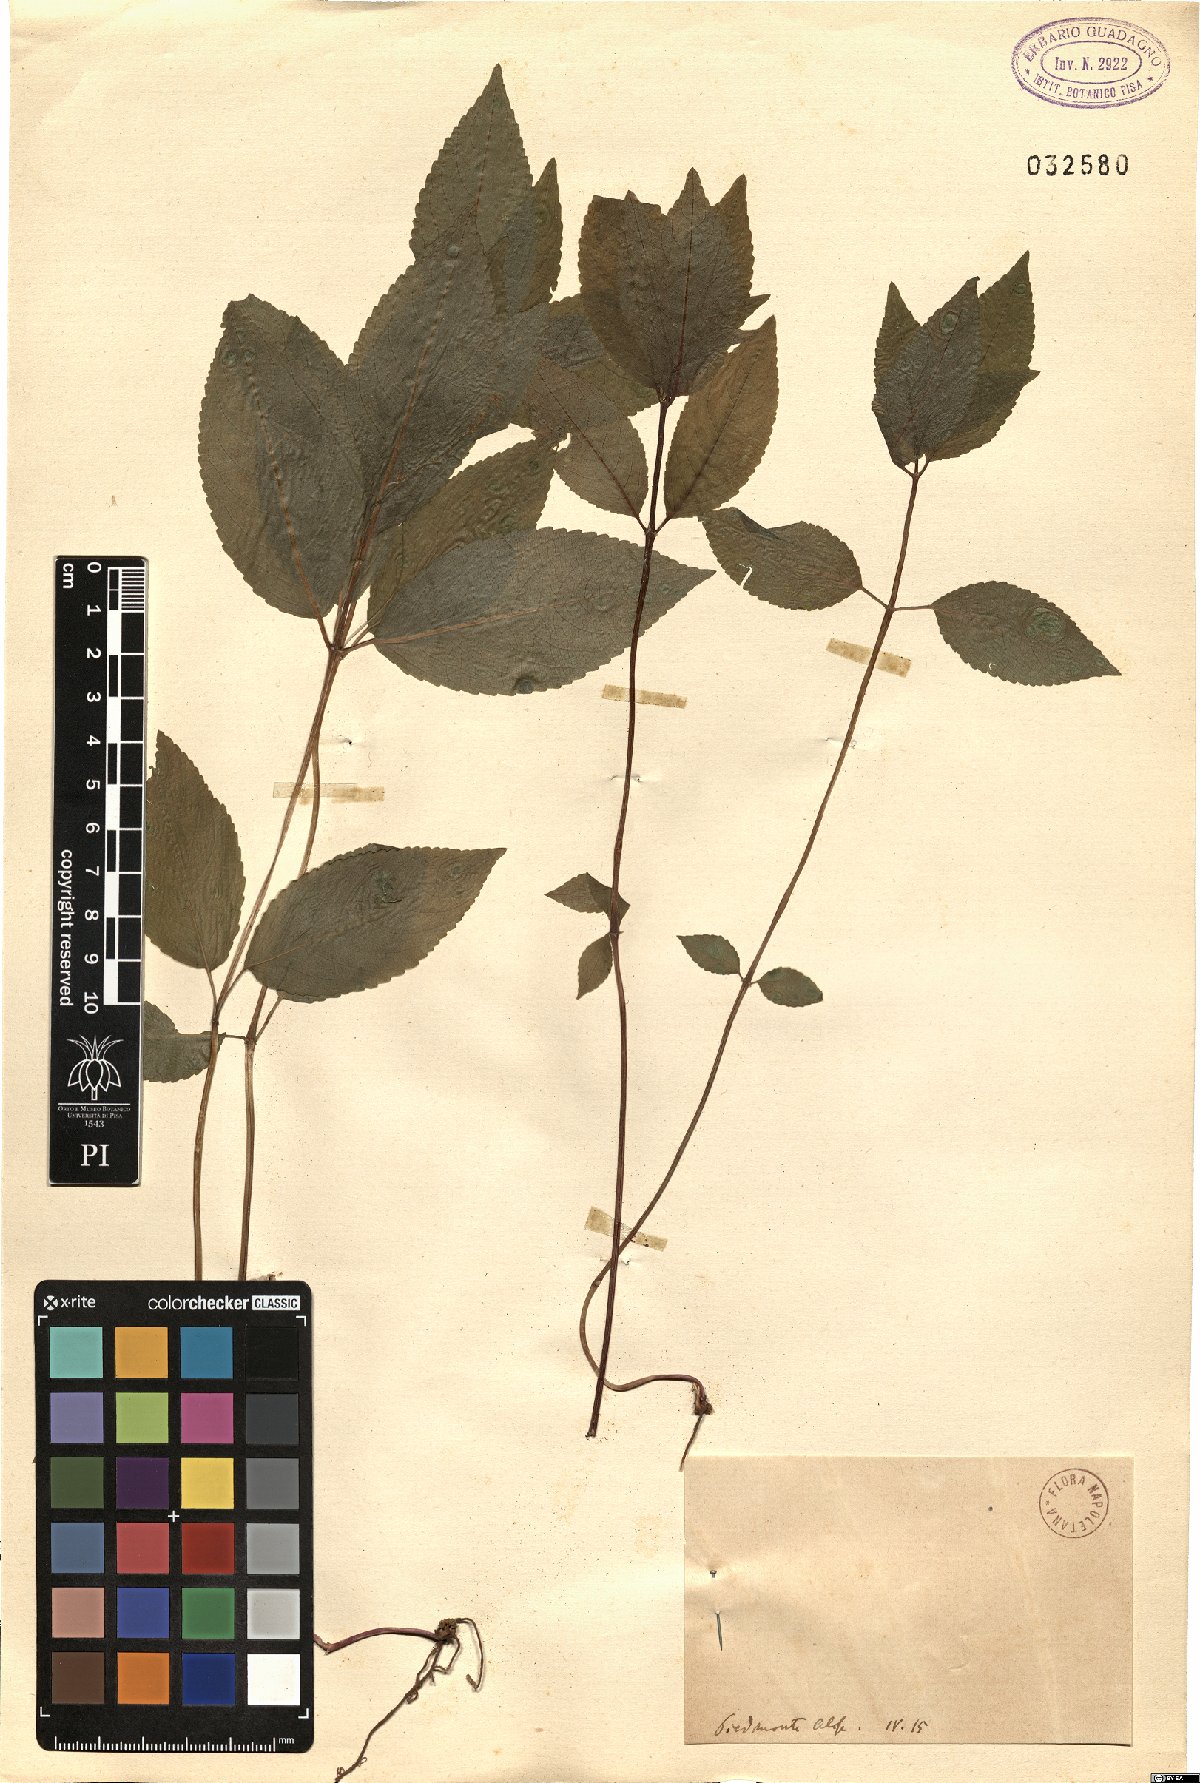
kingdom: Plantae
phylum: Tracheophyta
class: Magnoliopsida
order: Malpighiales
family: Euphorbiaceae
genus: Mercurialis
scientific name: Mercurialis
